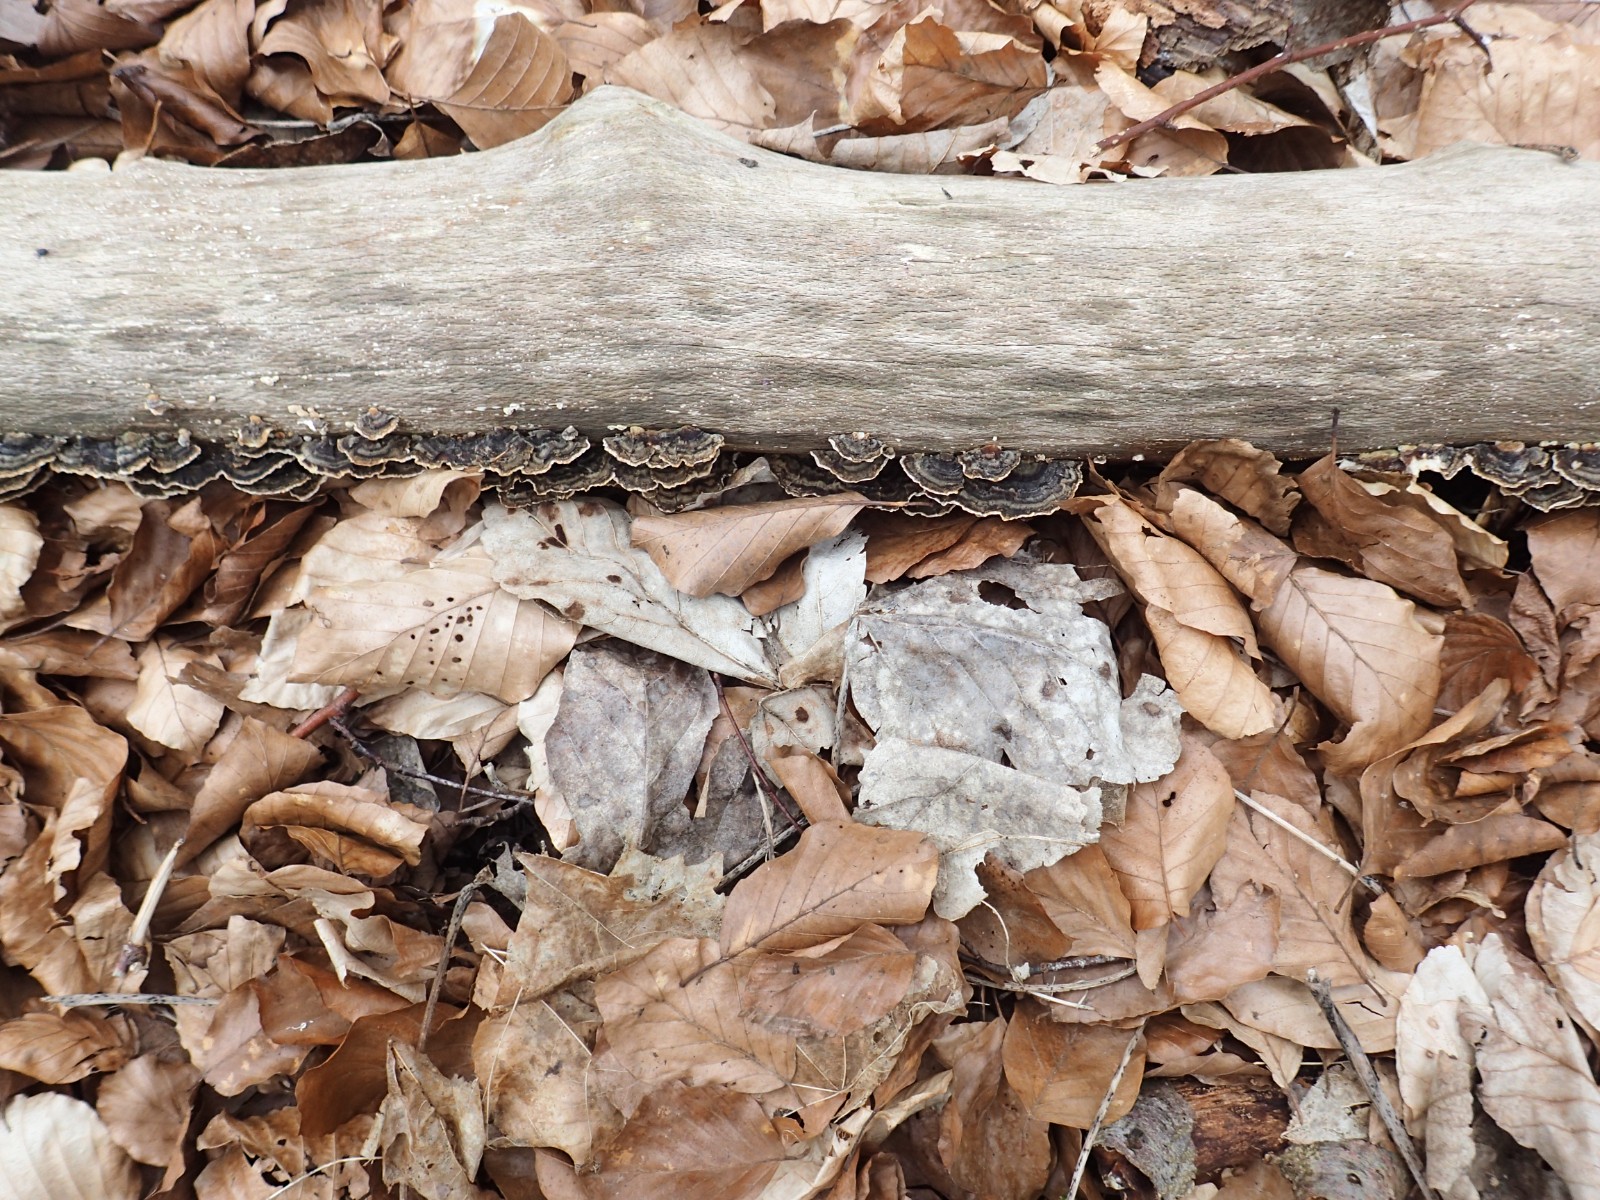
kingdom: Fungi
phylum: Basidiomycota
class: Agaricomycetes
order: Polyporales
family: Polyporaceae
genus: Trametes
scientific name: Trametes versicolor
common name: broget læderporesvamp
